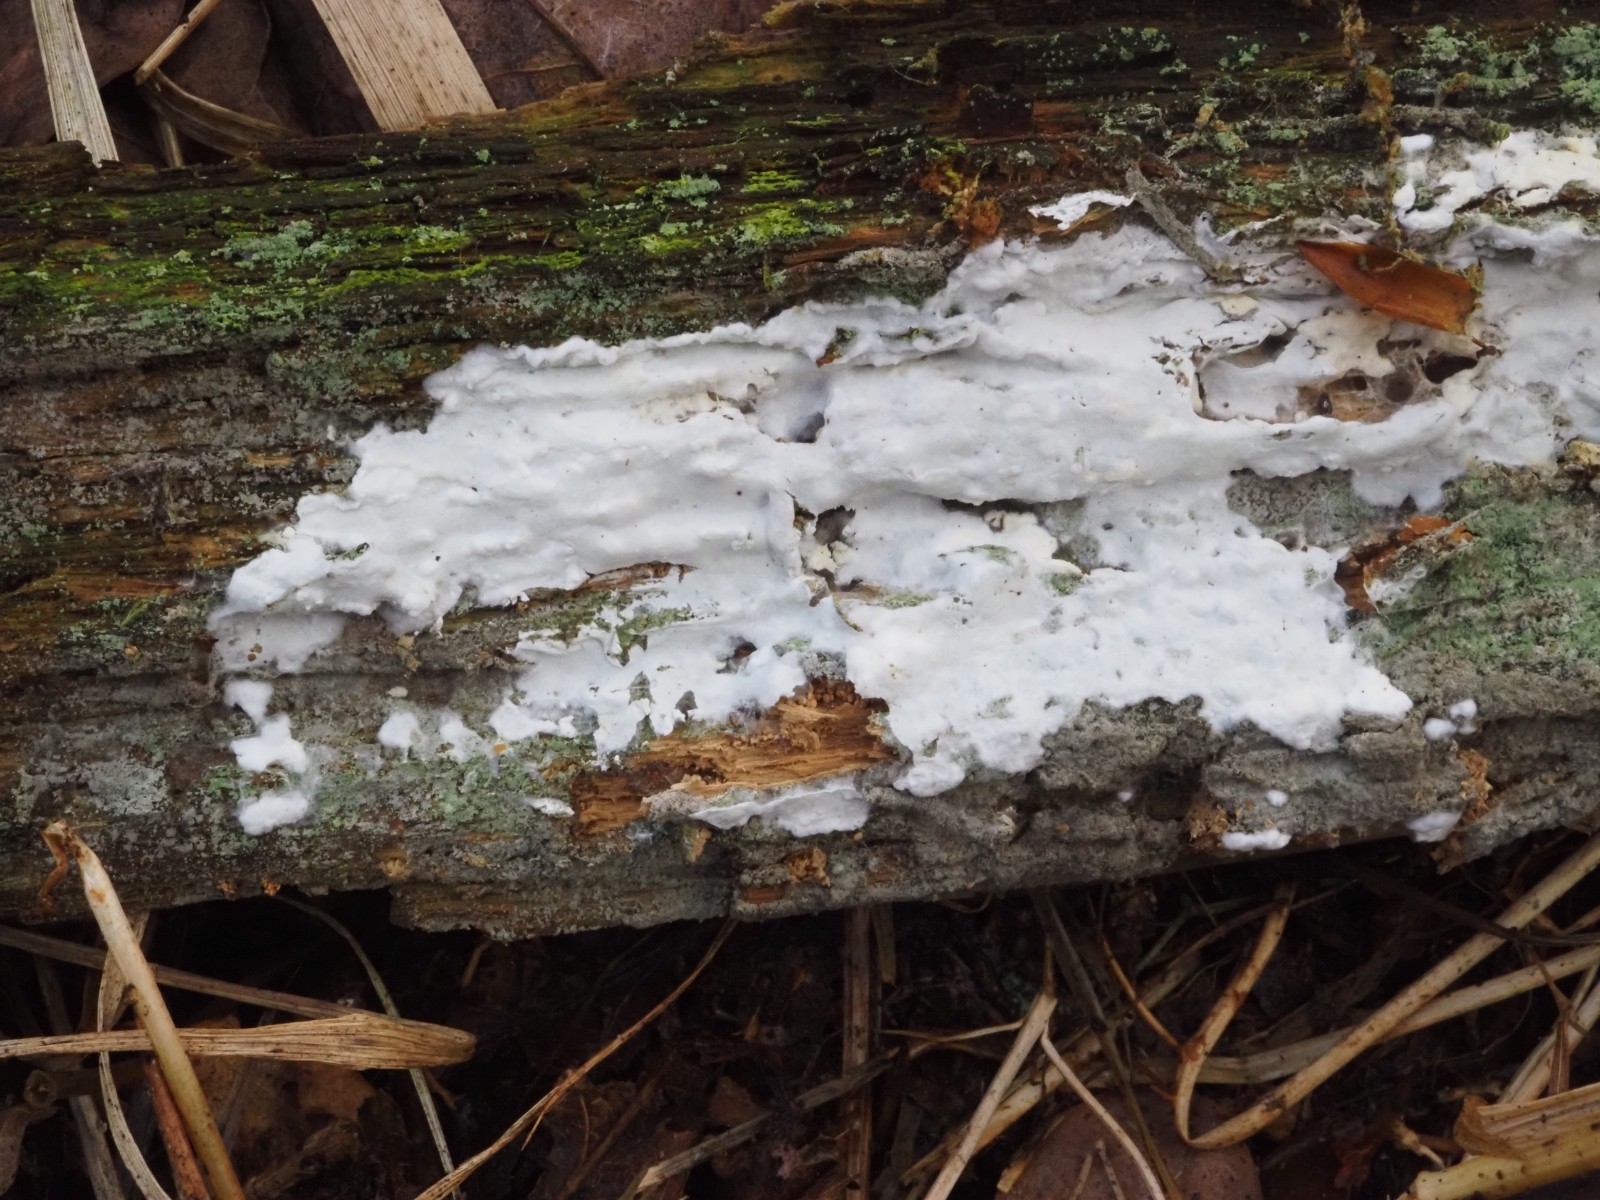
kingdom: Fungi
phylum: Basidiomycota
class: Agaricomycetes
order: Atheliales
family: Atheliaceae
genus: Leptosporomyces
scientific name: Leptosporomyces
